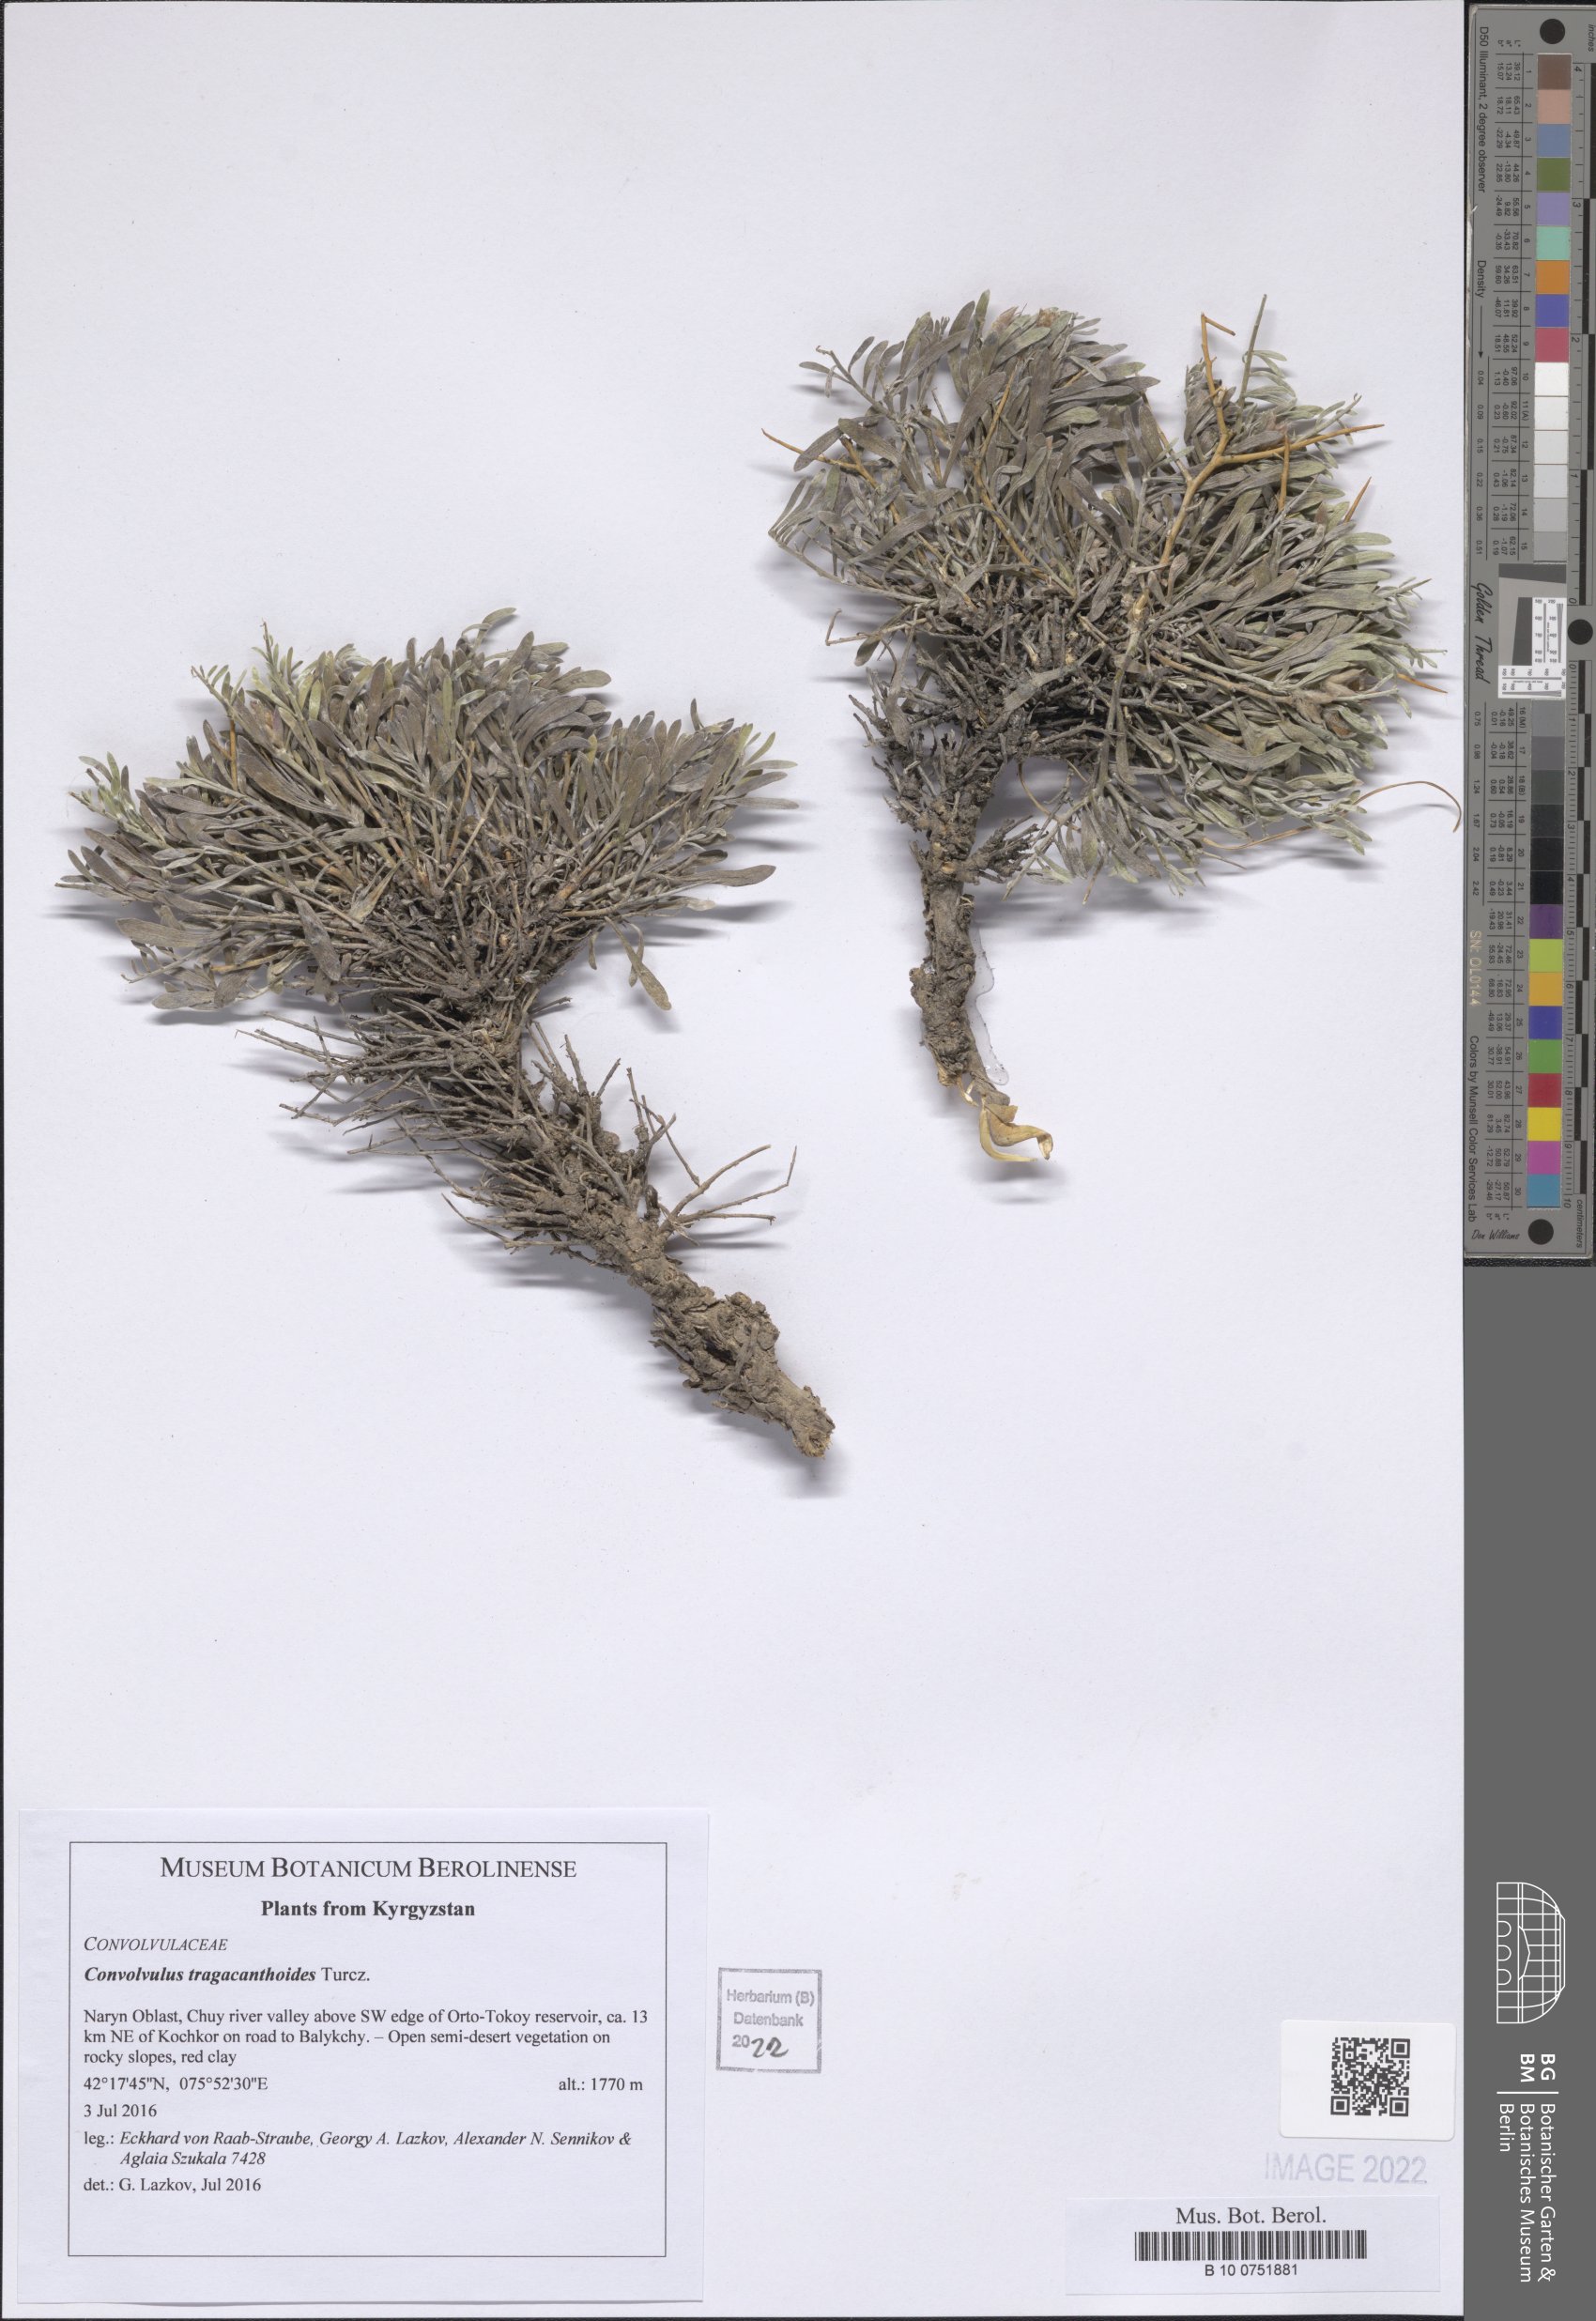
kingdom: Plantae
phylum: Tracheophyta
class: Magnoliopsida
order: Solanales
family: Convolvulaceae
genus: Convolvulus
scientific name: Convolvulus tragacanthoides
